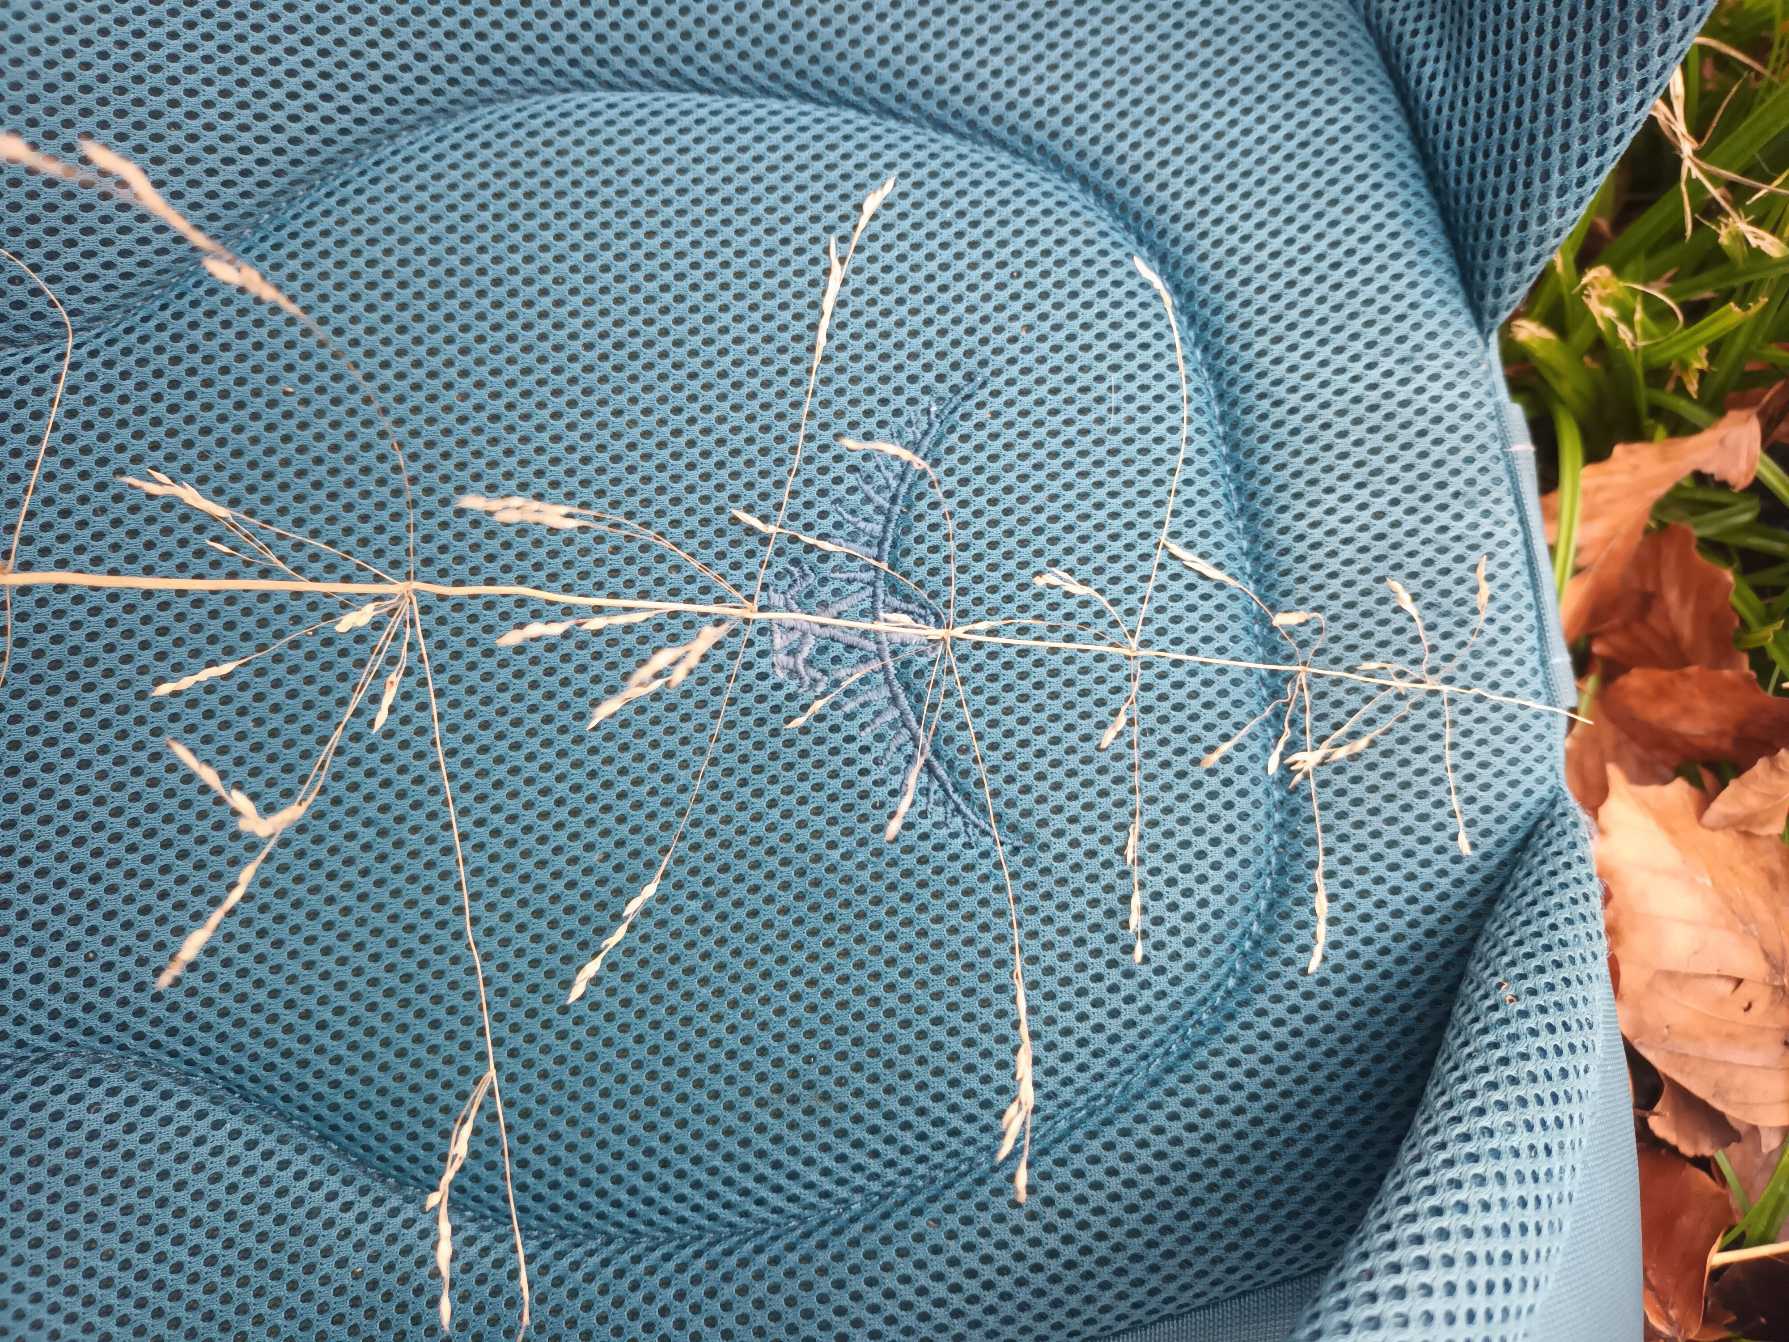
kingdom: Plantae
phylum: Tracheophyta
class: Liliopsida
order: Poales
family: Poaceae
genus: Milium
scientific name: Milium effusum
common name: Miliegræs
